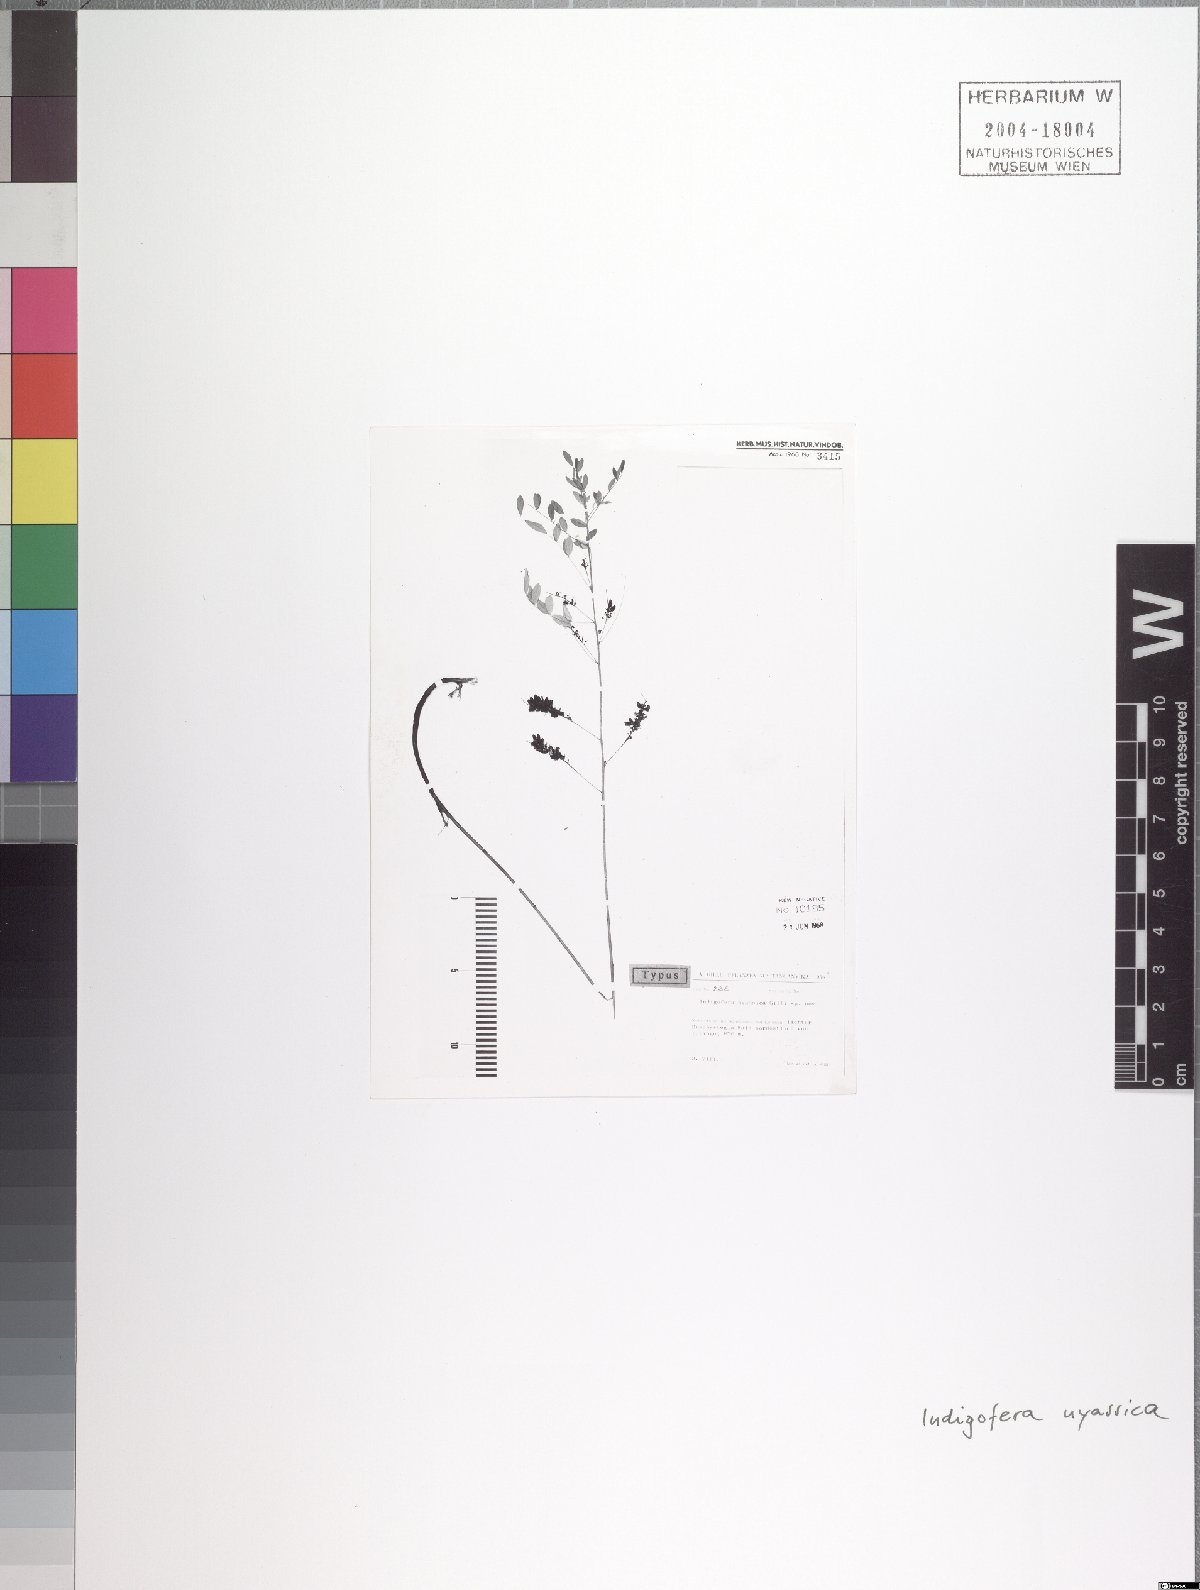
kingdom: Plantae
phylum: Tracheophyta
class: Magnoliopsida
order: Fabales
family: Fabaceae
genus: Indigofera
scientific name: Indigofera nyassica
